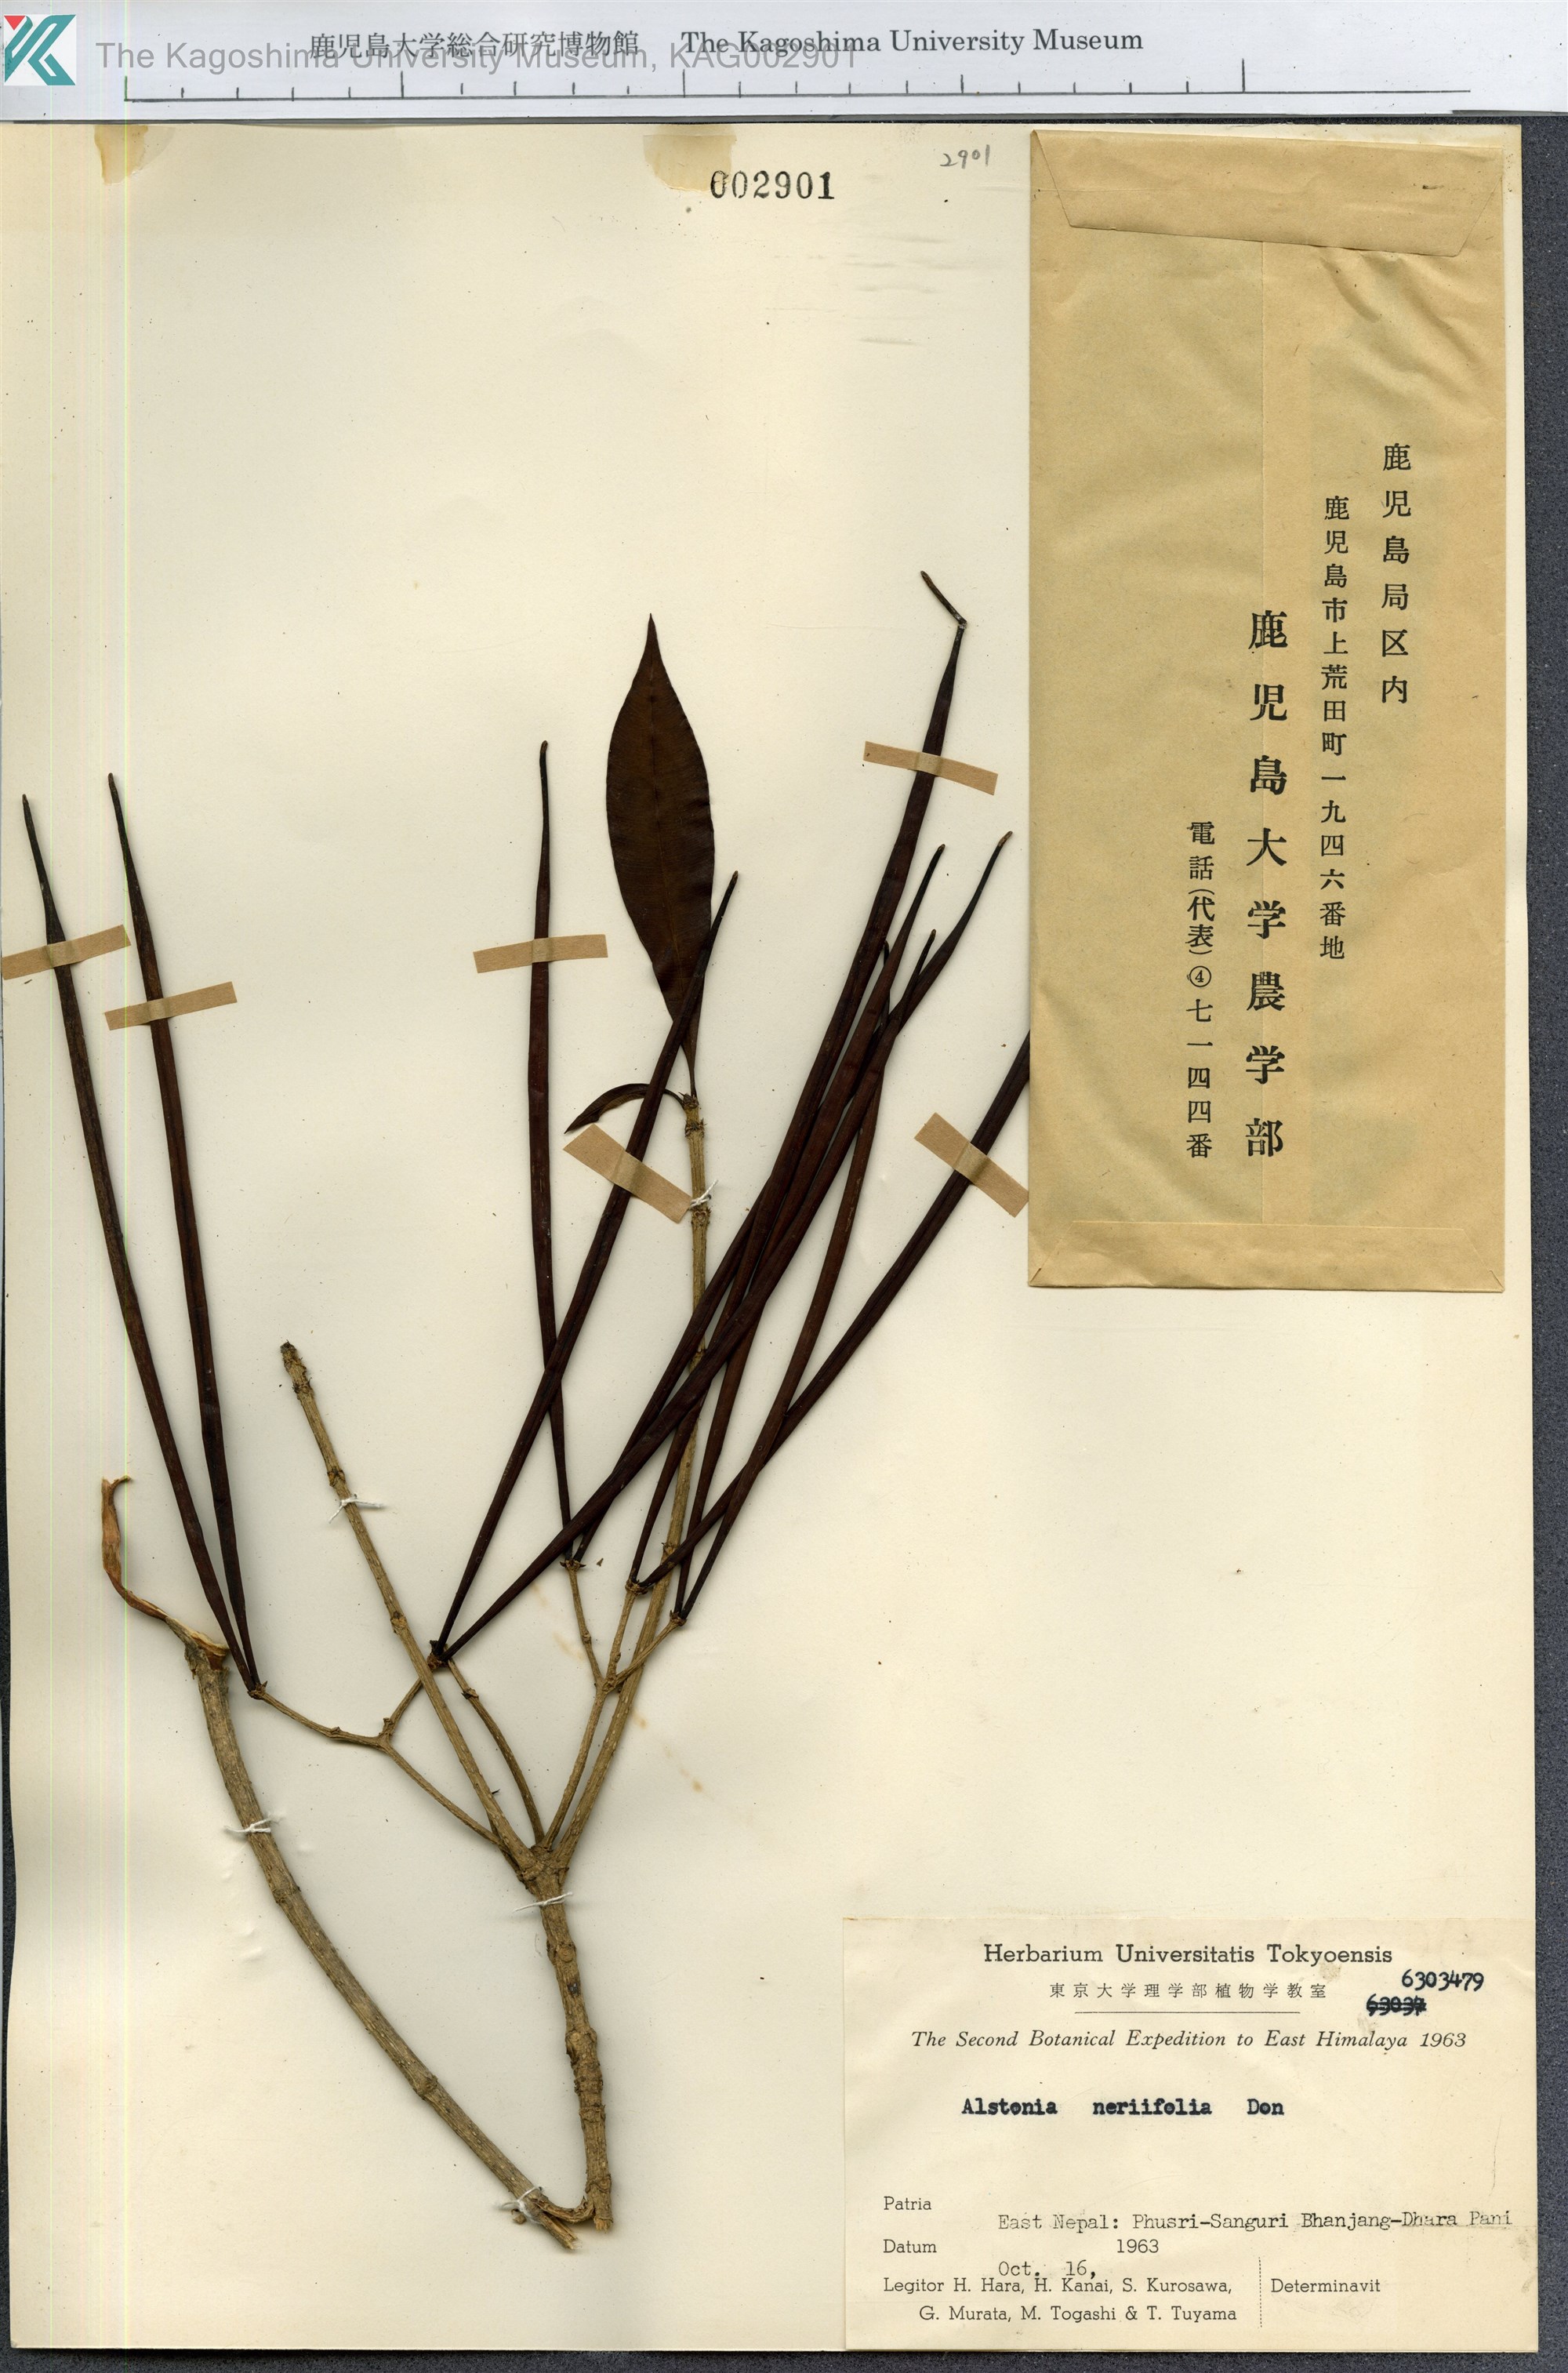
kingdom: Plantae
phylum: Tracheophyta
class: Magnoliopsida
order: Gentianales
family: Apocynaceae
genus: Alstonia
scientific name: Alstonia neriifolia
